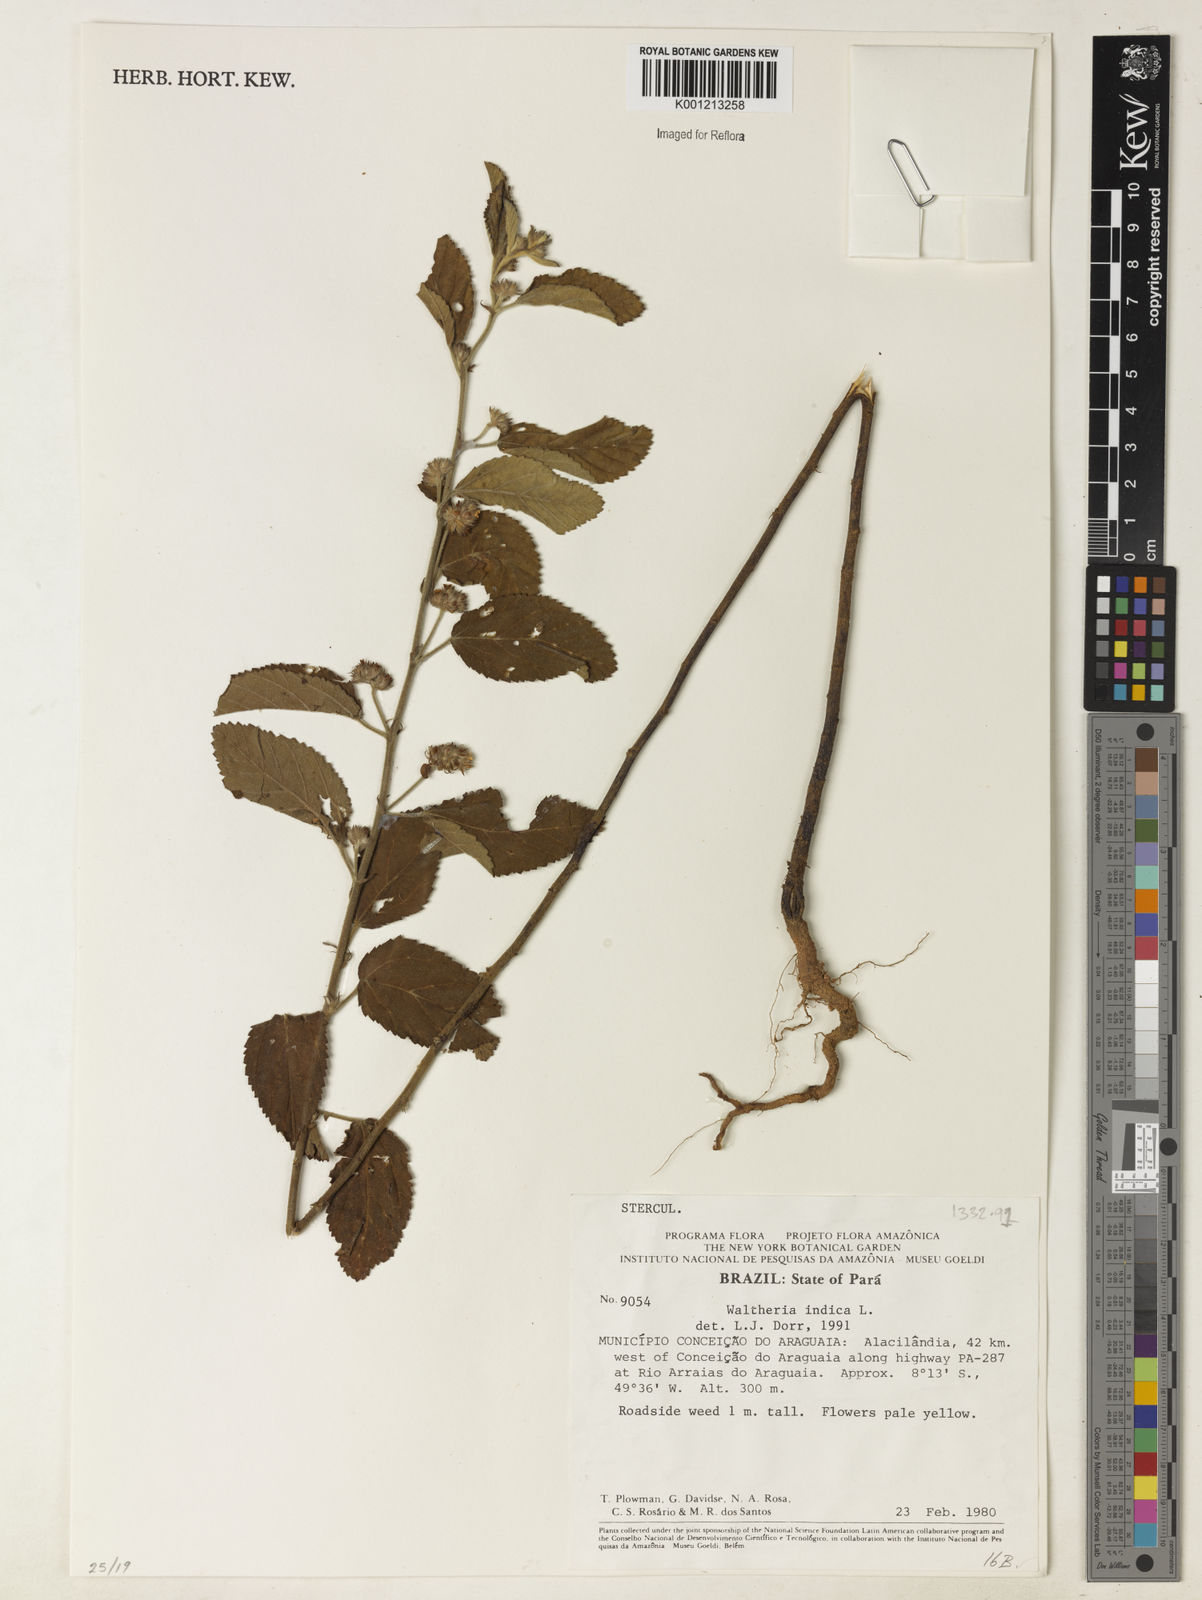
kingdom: Plantae
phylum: Tracheophyta
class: Magnoliopsida
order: Malvales
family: Malvaceae
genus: Waltheria
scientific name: Waltheria indica
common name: Leather-coat
